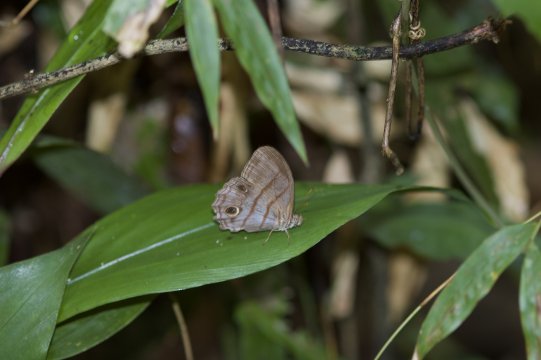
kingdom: Animalia
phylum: Arthropoda
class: Insecta
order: Lepidoptera
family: Nymphalidae
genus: Magneuptychia
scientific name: Magneuptychia libye
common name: Blue-gray Satyr
